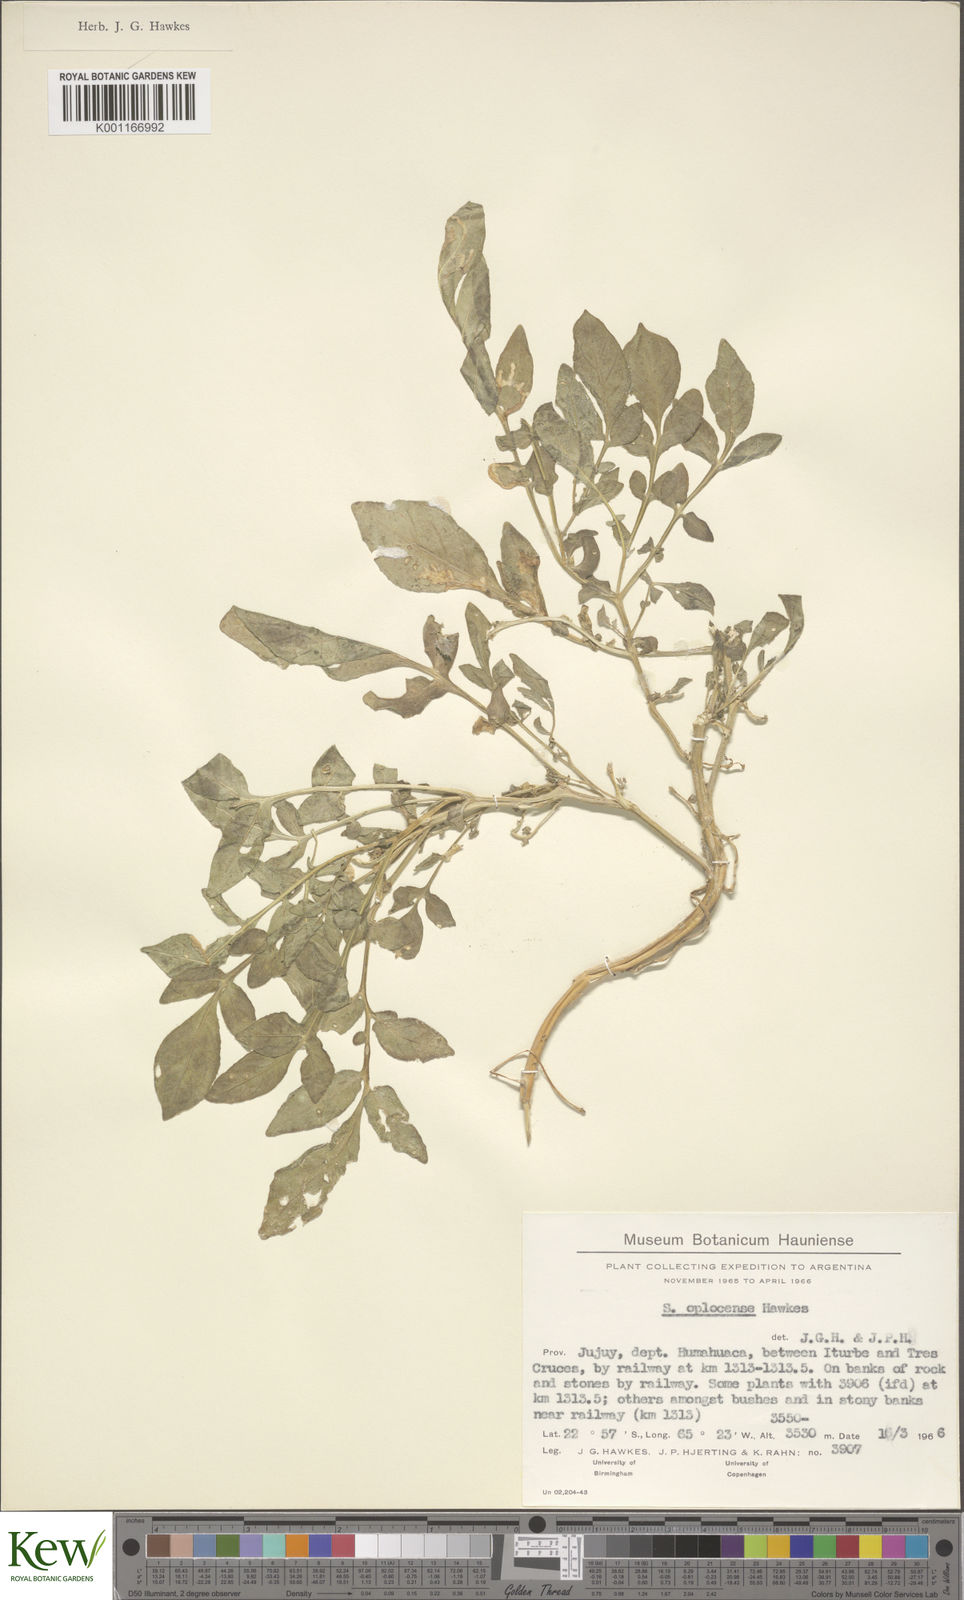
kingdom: Plantae
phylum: Tracheophyta
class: Magnoliopsida
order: Solanales
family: Solanaceae
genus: Solanum
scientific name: Solanum brevicaule
